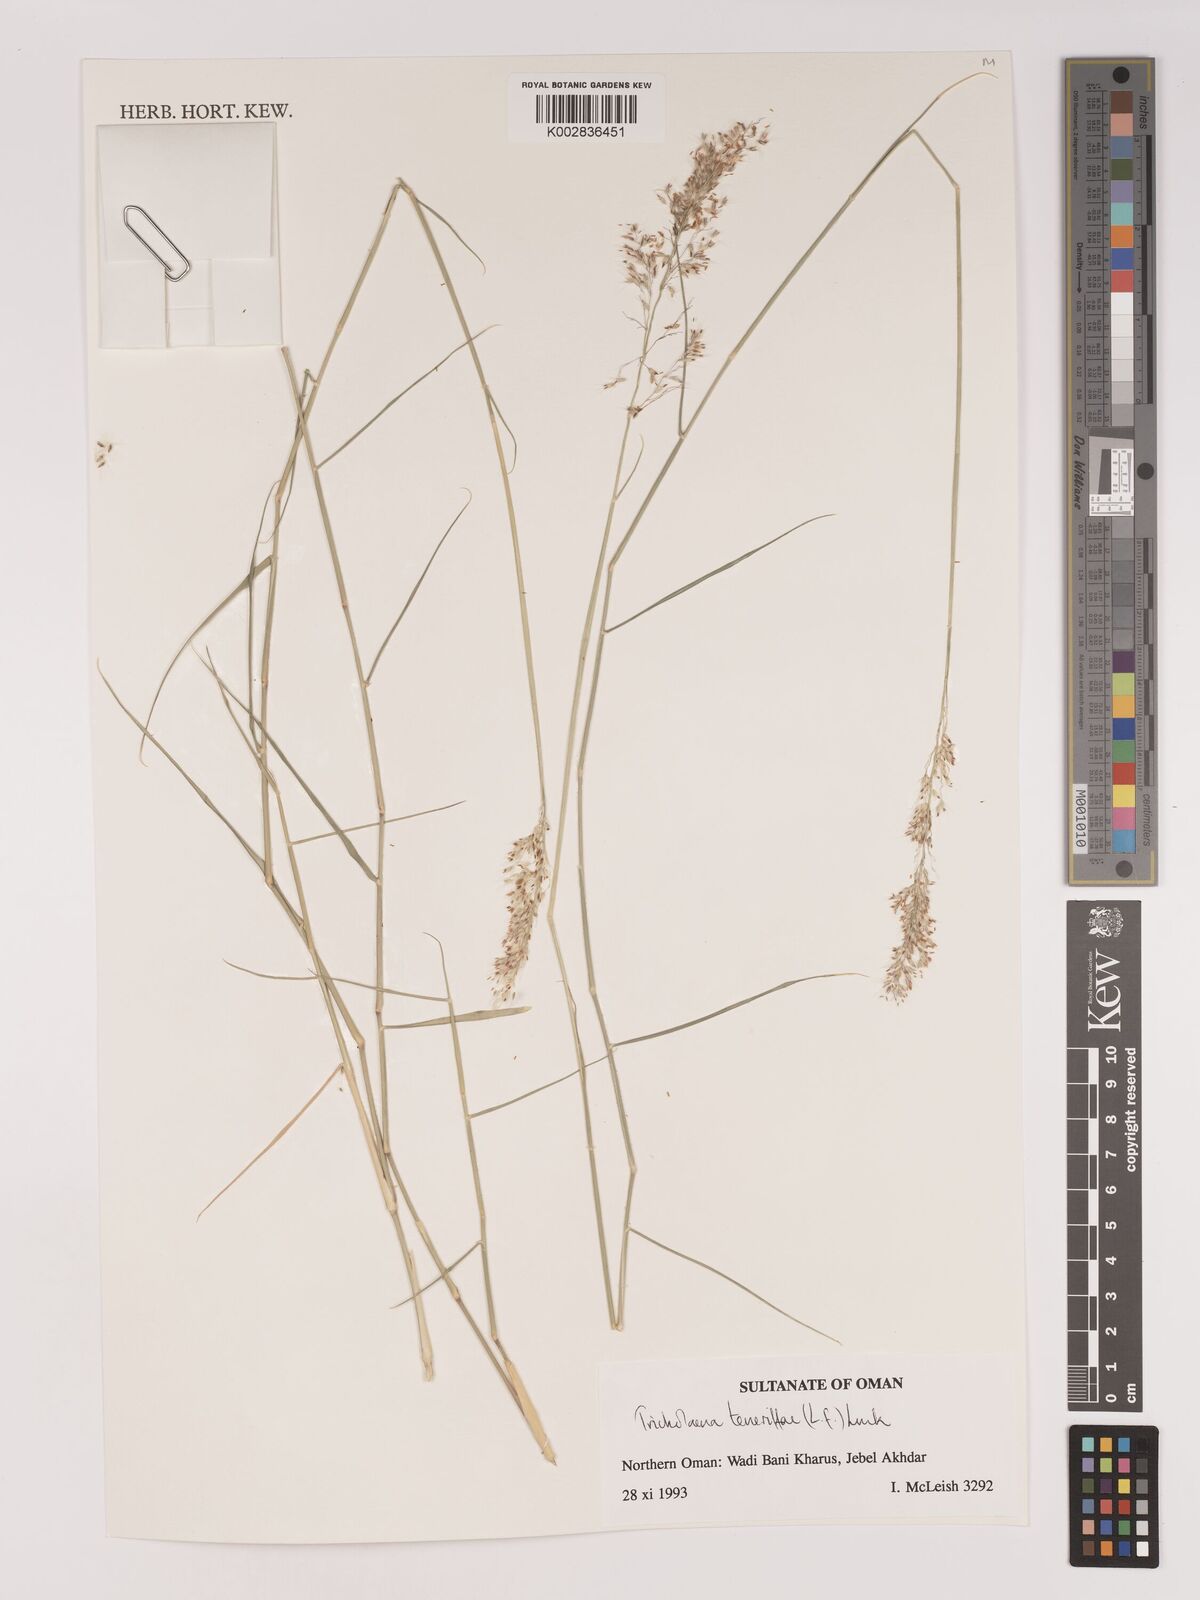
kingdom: Plantae
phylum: Tracheophyta
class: Liliopsida
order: Poales
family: Poaceae
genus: Tricholaena
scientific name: Tricholaena teneriffae
